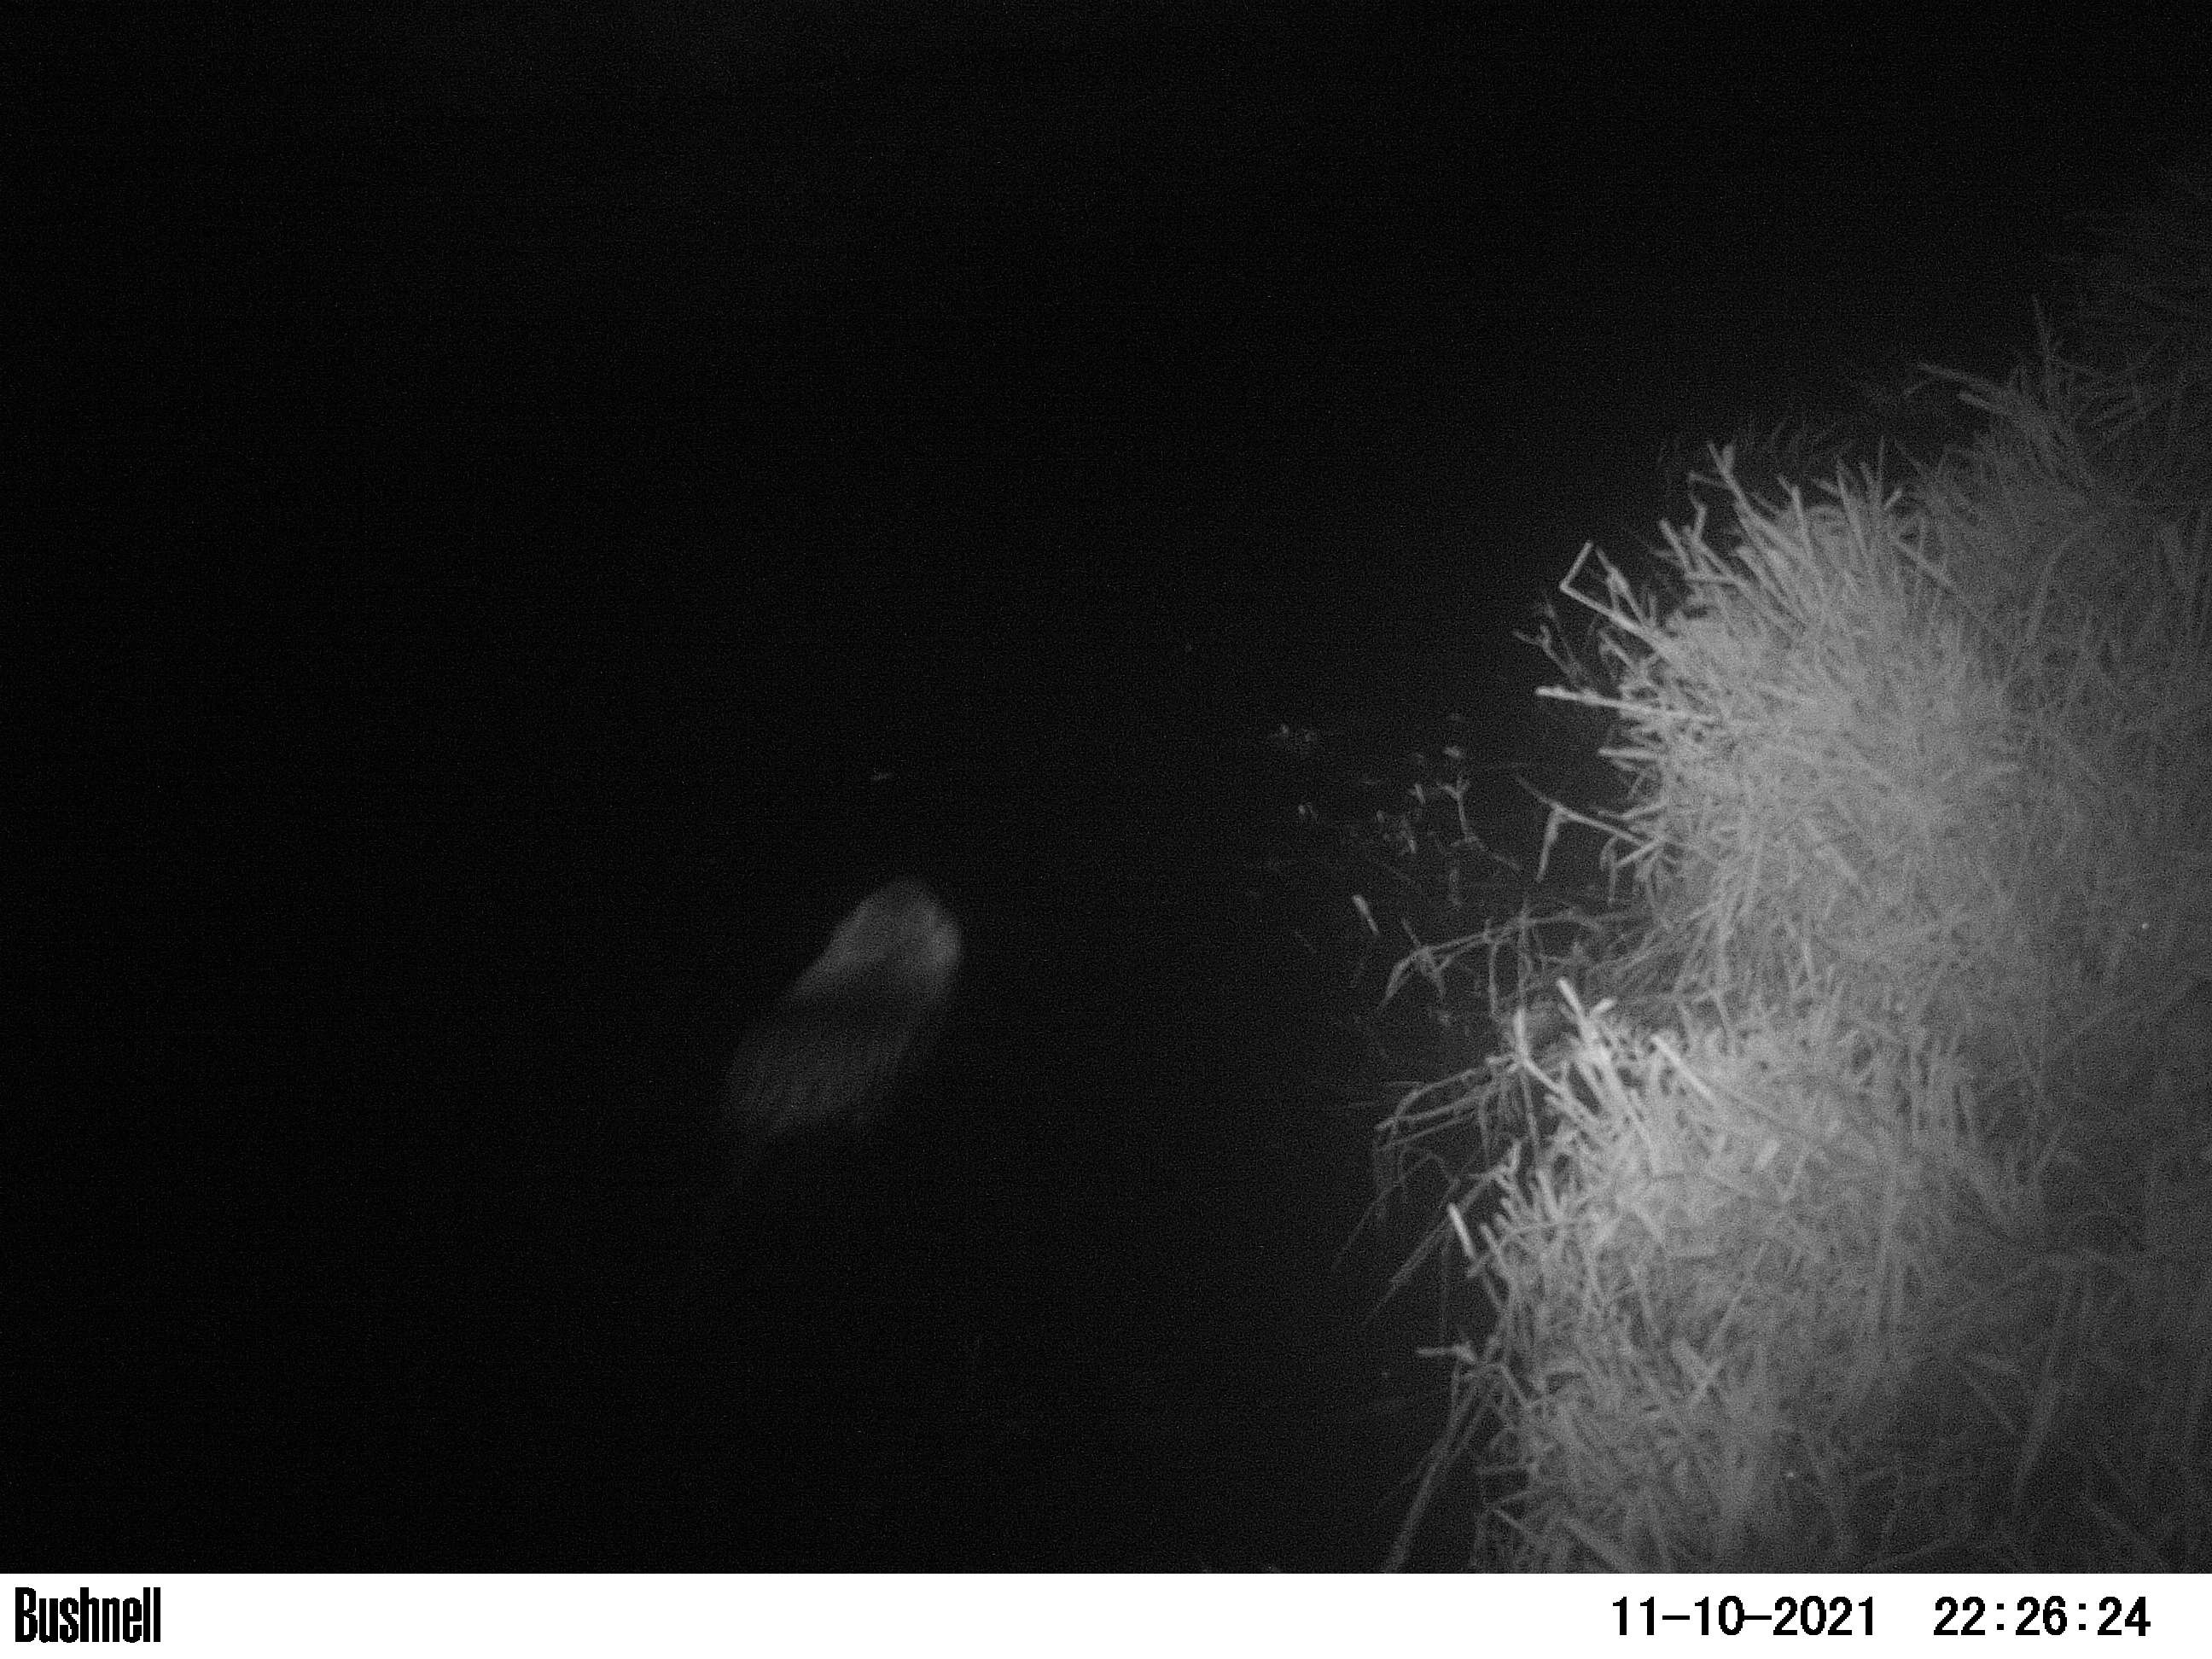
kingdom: Animalia
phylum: Chordata
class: Mammalia
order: Rodentia
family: Cricetidae
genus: Ondatra
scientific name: Ondatra zibethicus
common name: Muskrat
